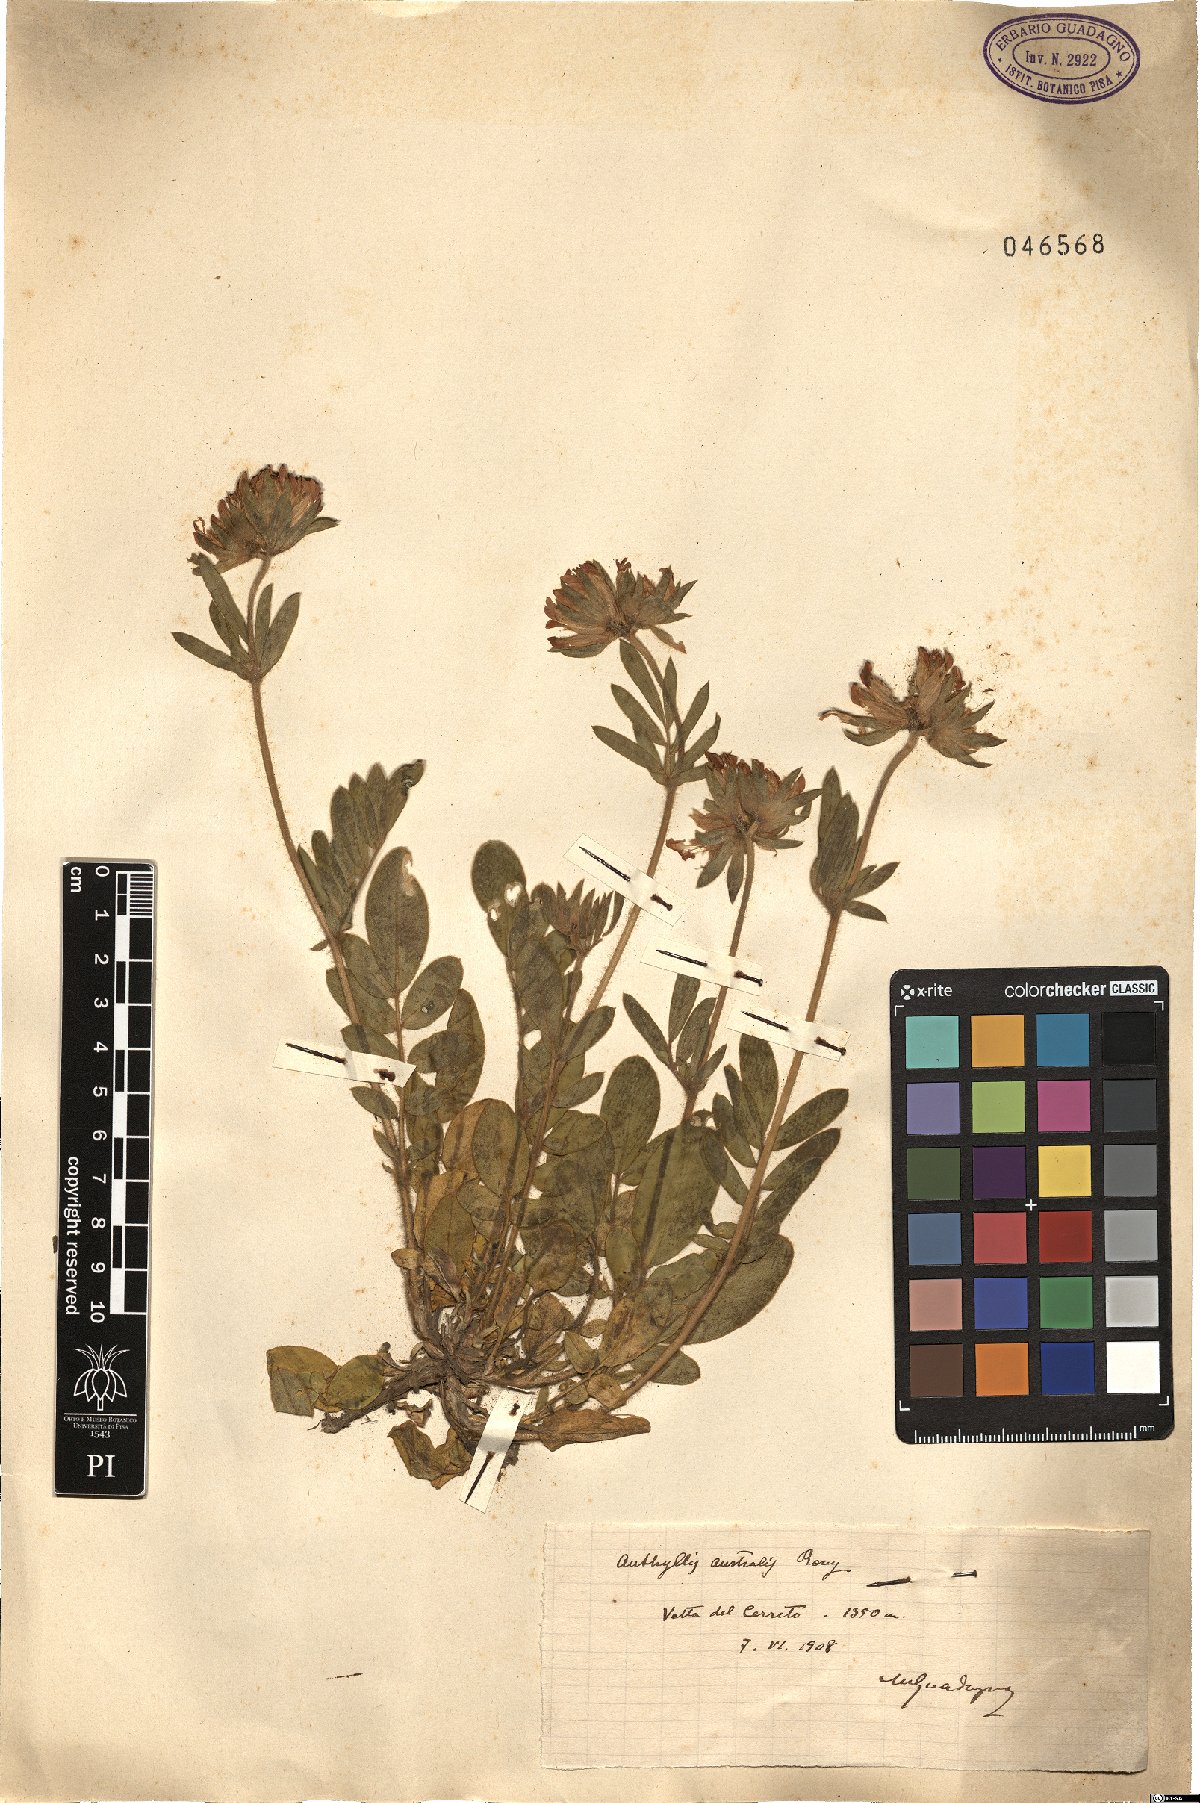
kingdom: Plantae
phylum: Tracheophyta
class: Magnoliopsida
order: Fabales
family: Fabaceae
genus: Anthyllis
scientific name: Anthyllis
